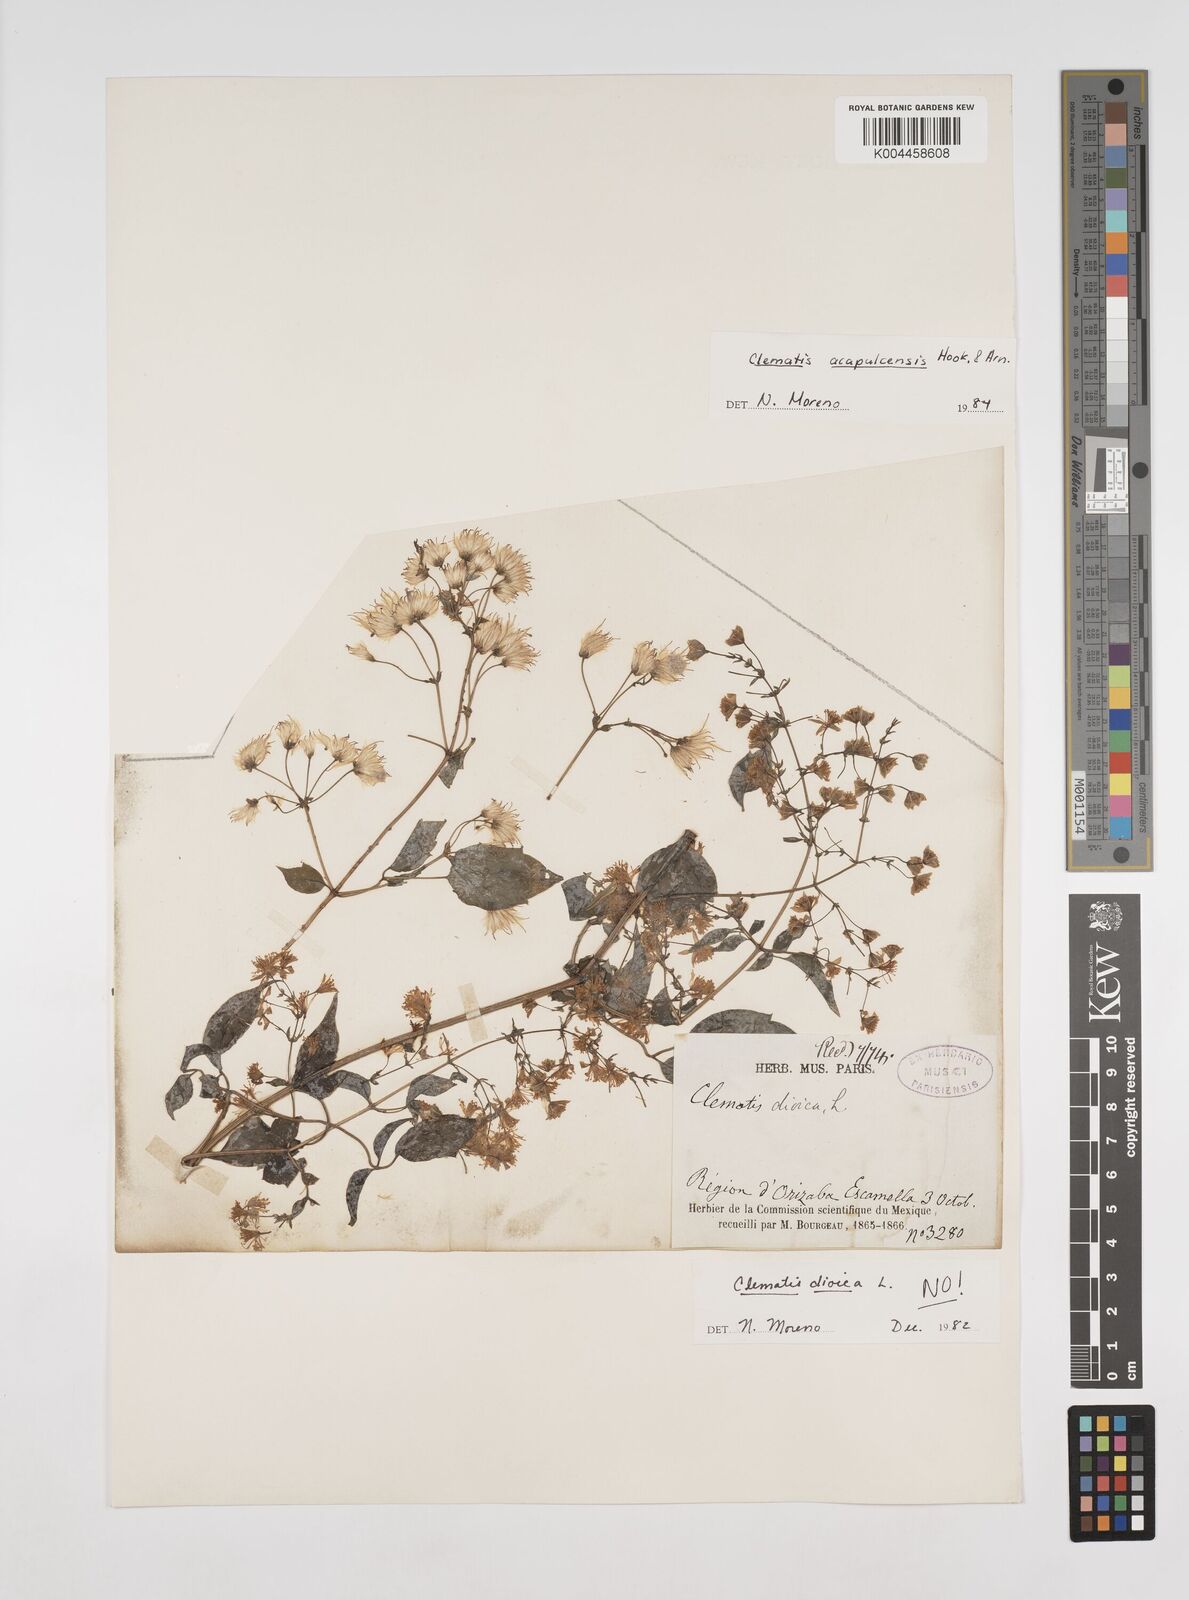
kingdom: Plantae
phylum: Tracheophyta
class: Magnoliopsida
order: Ranunculales
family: Ranunculaceae
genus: Clematis
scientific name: Clematis acapulcensis
